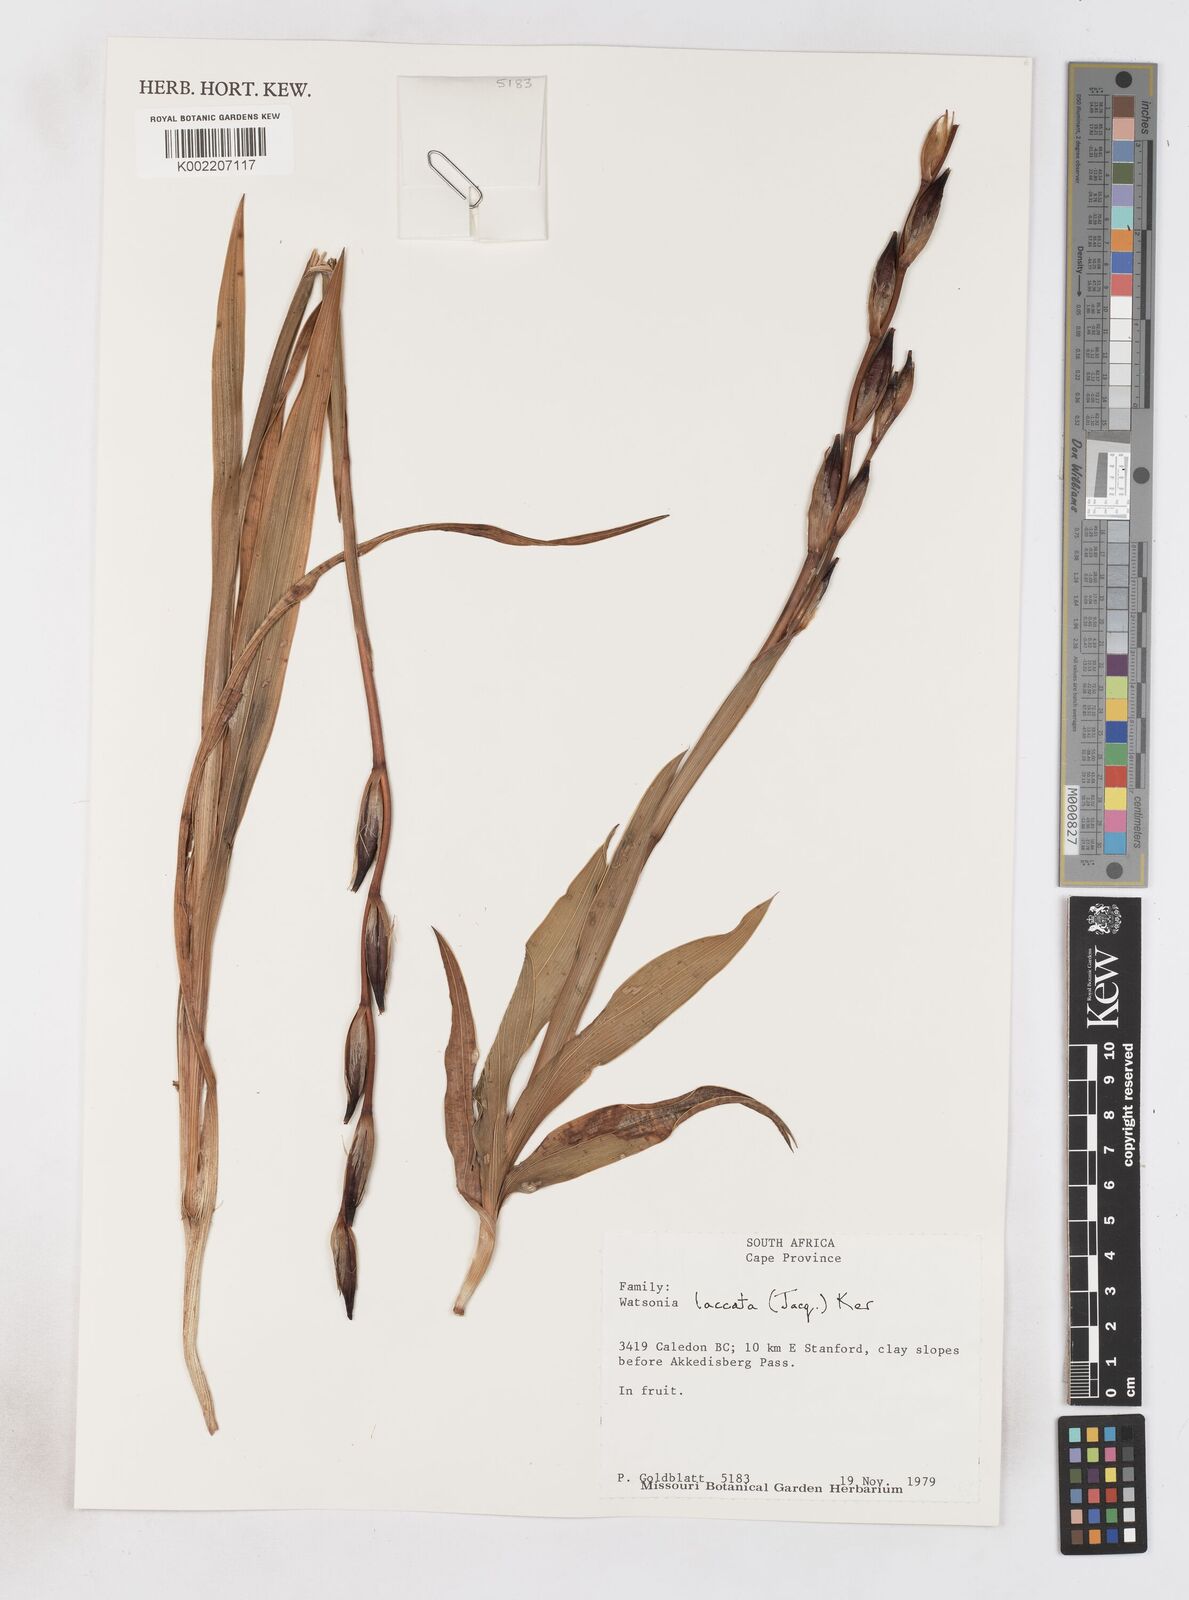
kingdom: Plantae
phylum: Tracheophyta
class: Liliopsida
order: Asparagales
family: Iridaceae
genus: Watsonia
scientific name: Watsonia laccata
